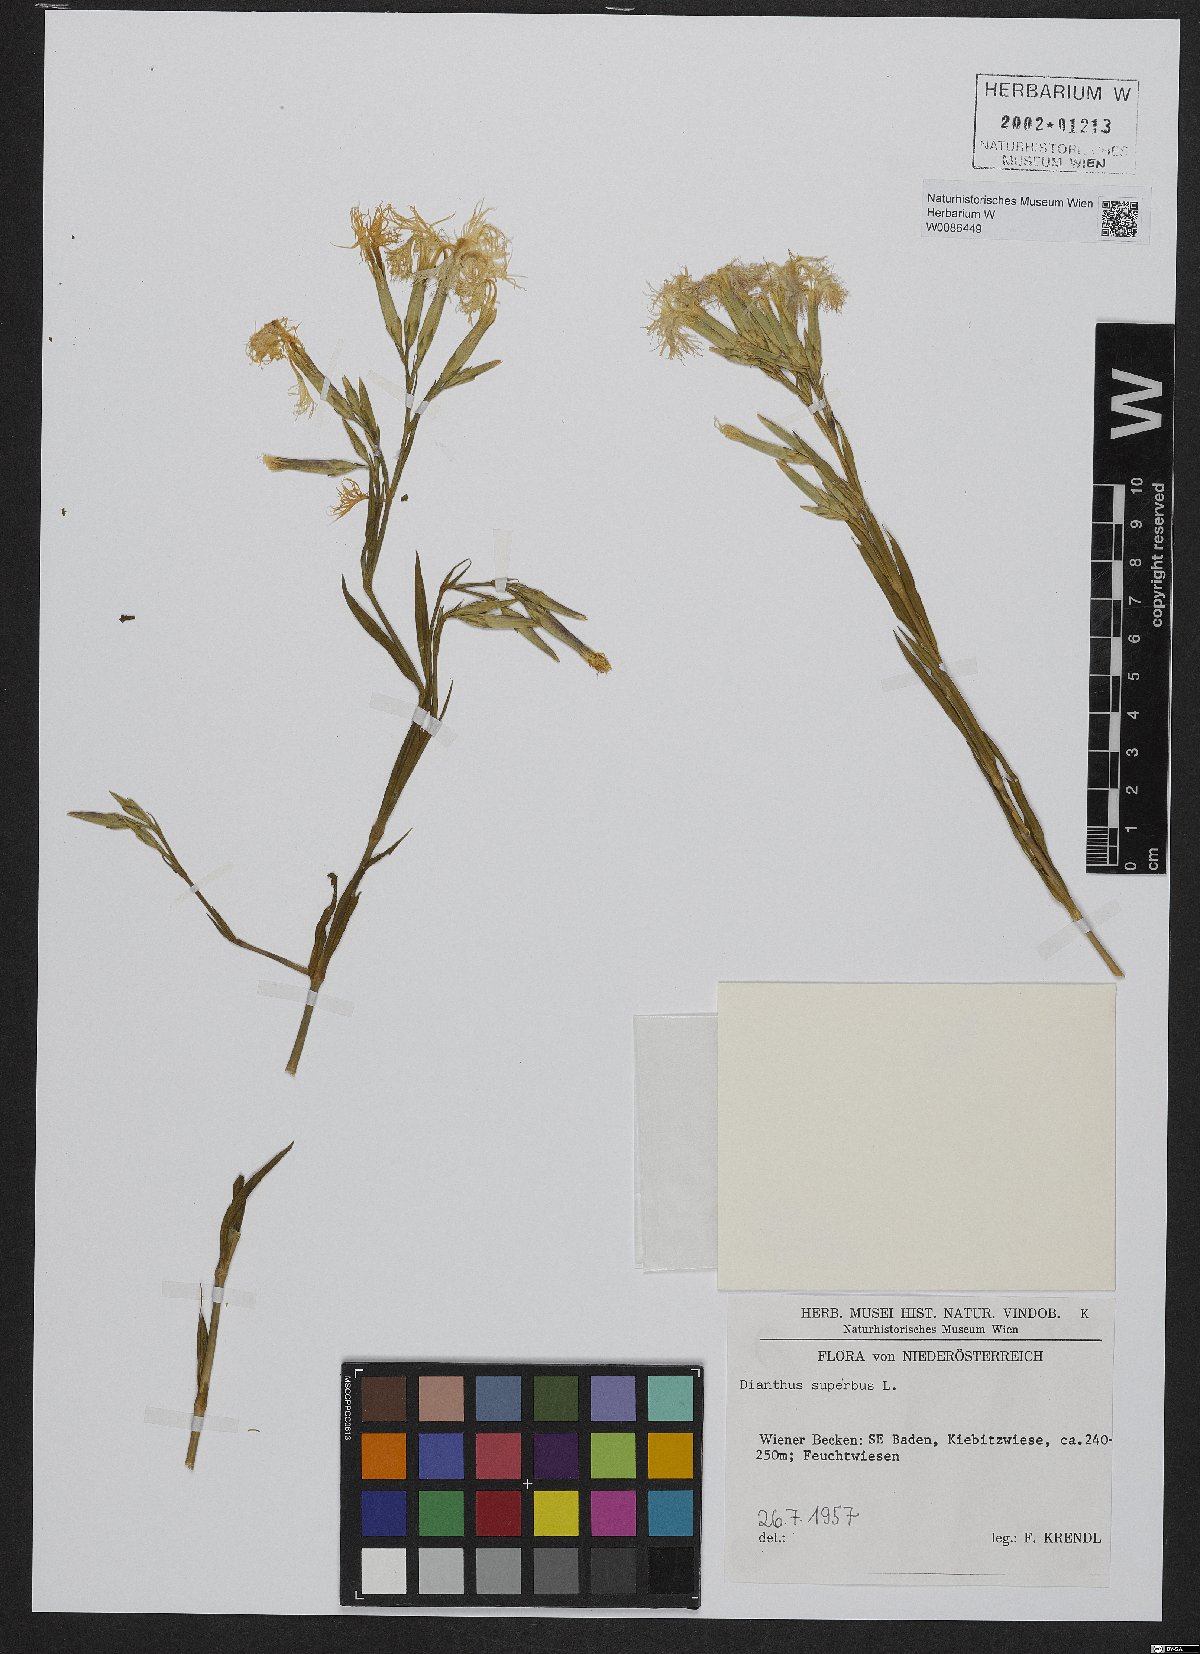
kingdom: Plantae
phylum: Tracheophyta
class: Magnoliopsida
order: Caryophyllales
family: Caryophyllaceae
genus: Dianthus
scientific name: Dianthus superbus
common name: Fringed pink
